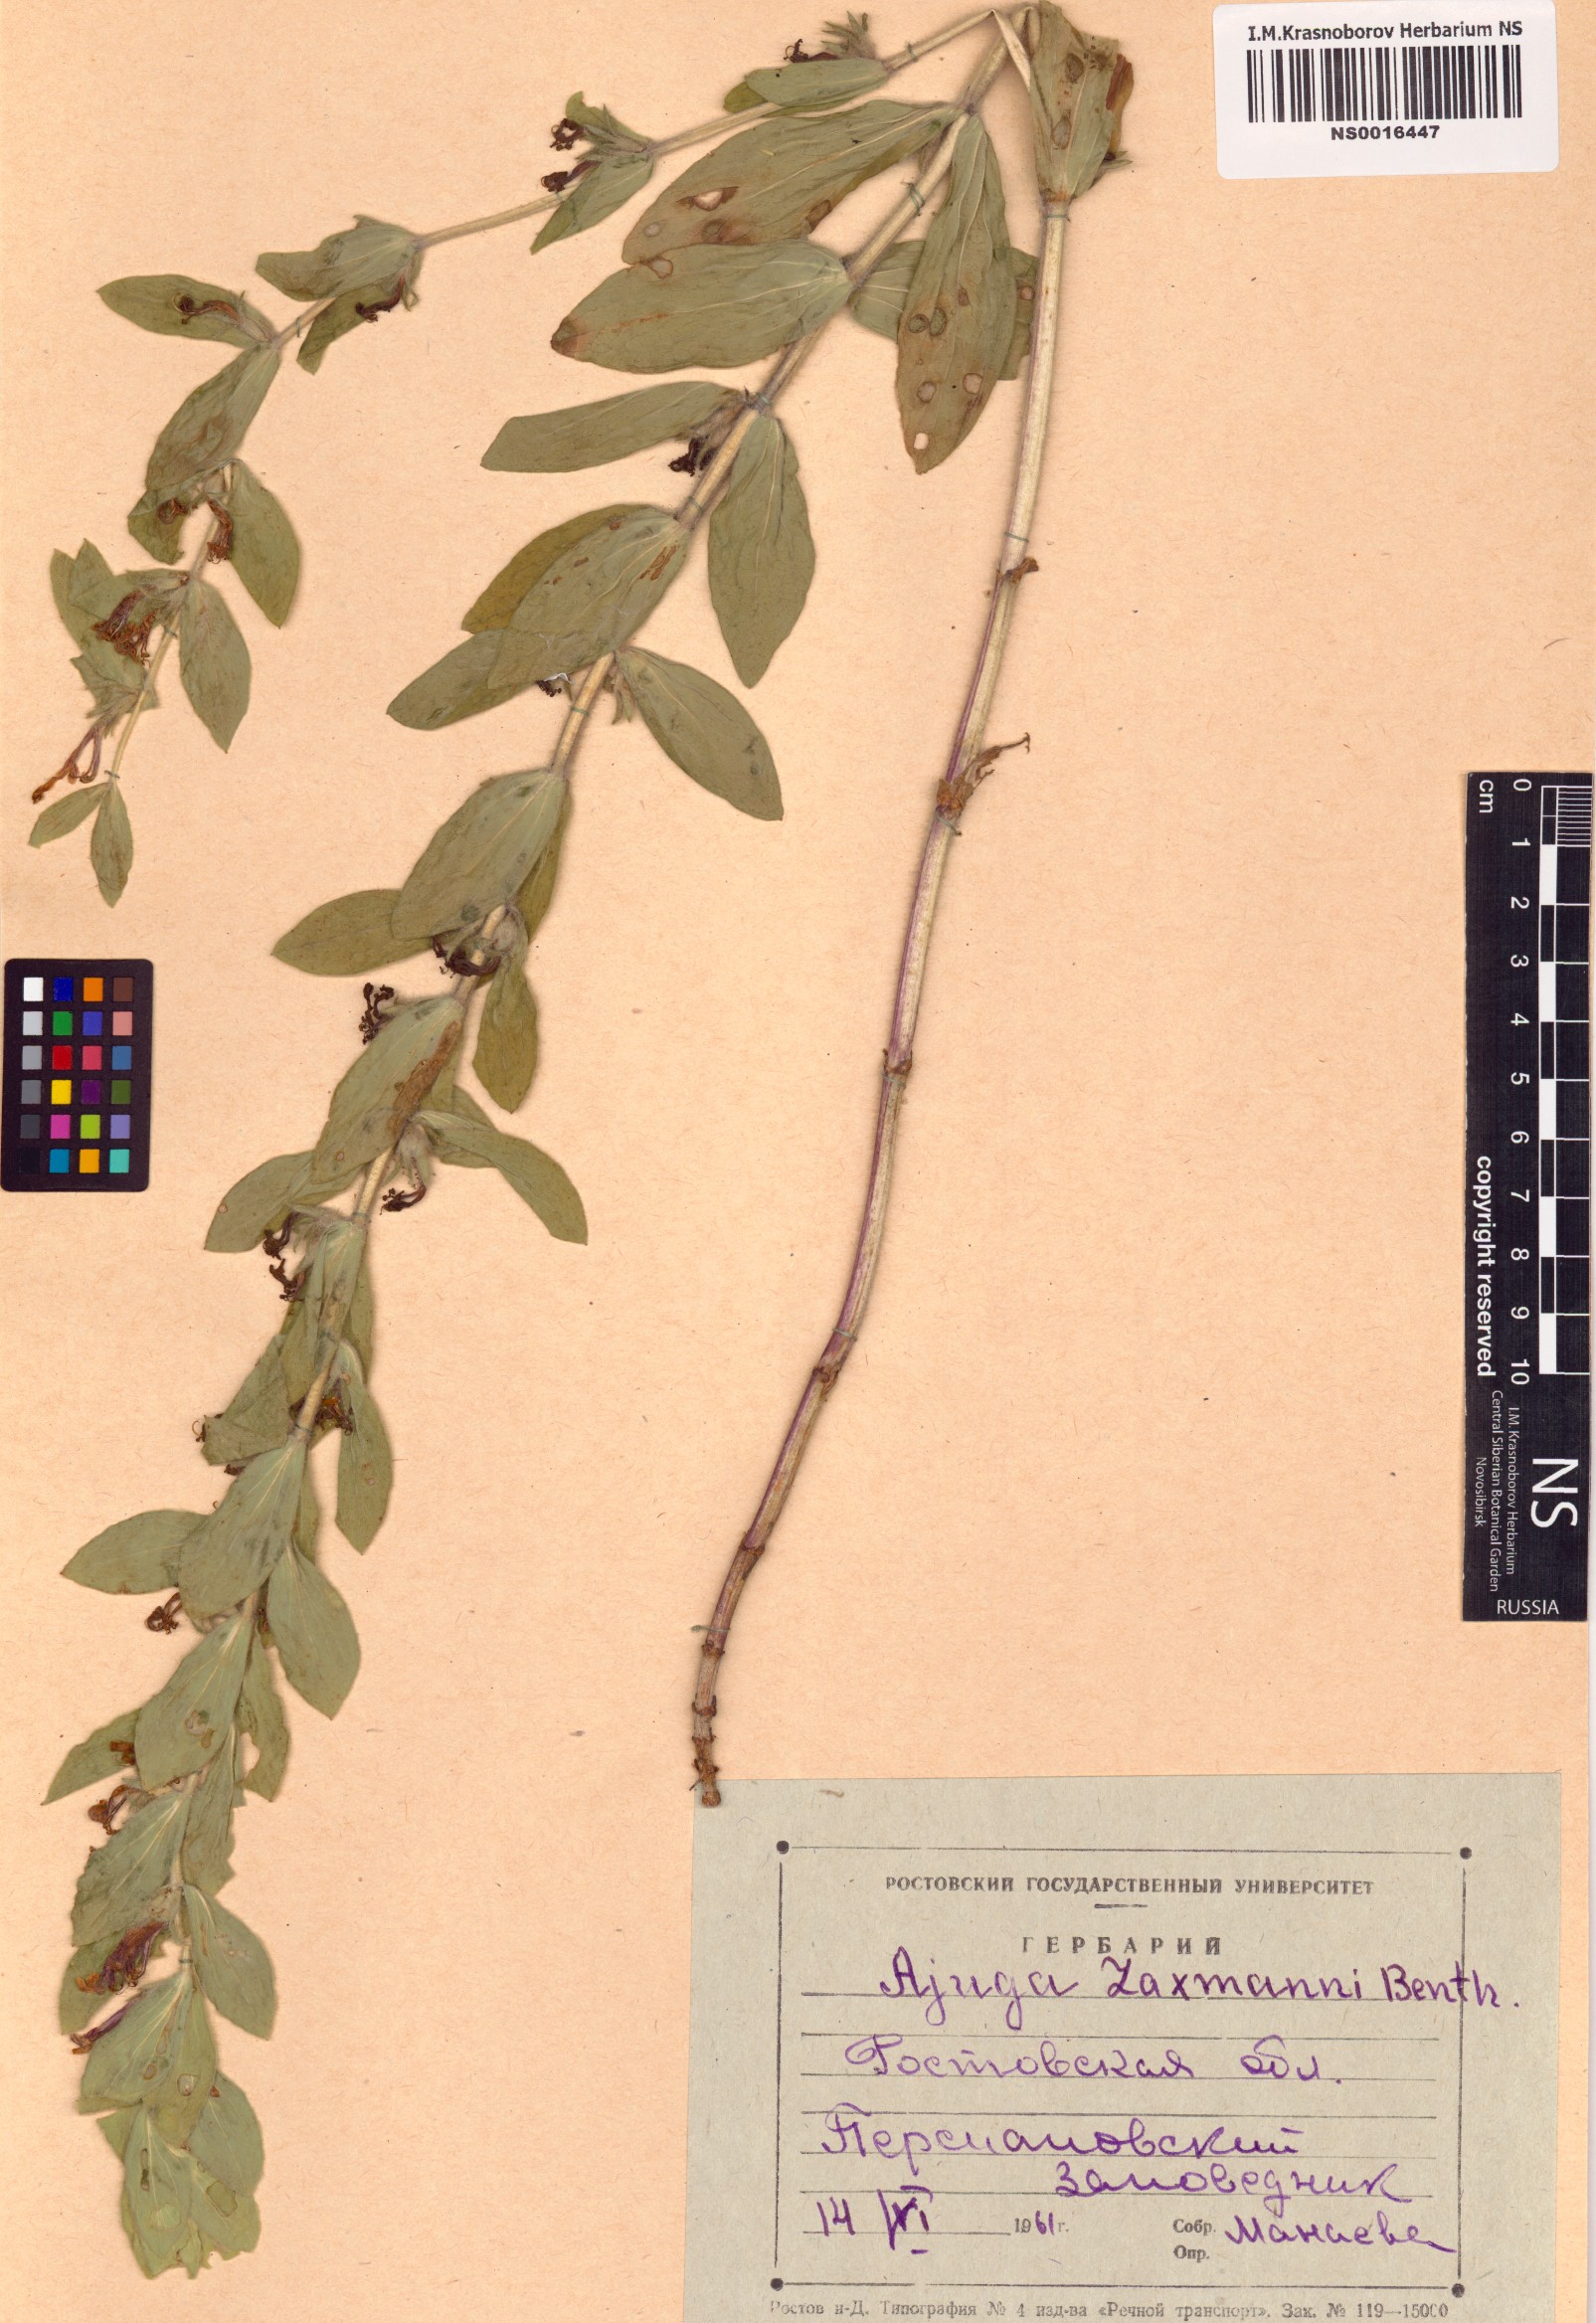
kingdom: Plantae
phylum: Tracheophyta
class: Magnoliopsida
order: Lamiales
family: Lamiaceae
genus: Ajuga
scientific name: Ajuga laxmannii
